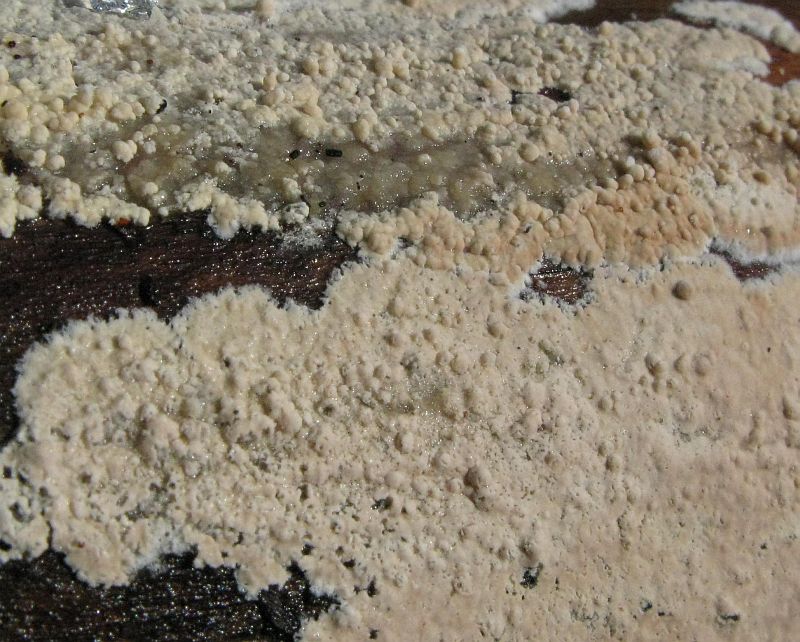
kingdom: Fungi
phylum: Basidiomycota
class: Agaricomycetes
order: Agaricales
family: Physalacriaceae
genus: Cylindrobasidium
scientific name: Cylindrobasidium evolvens
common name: sprækkehinde
